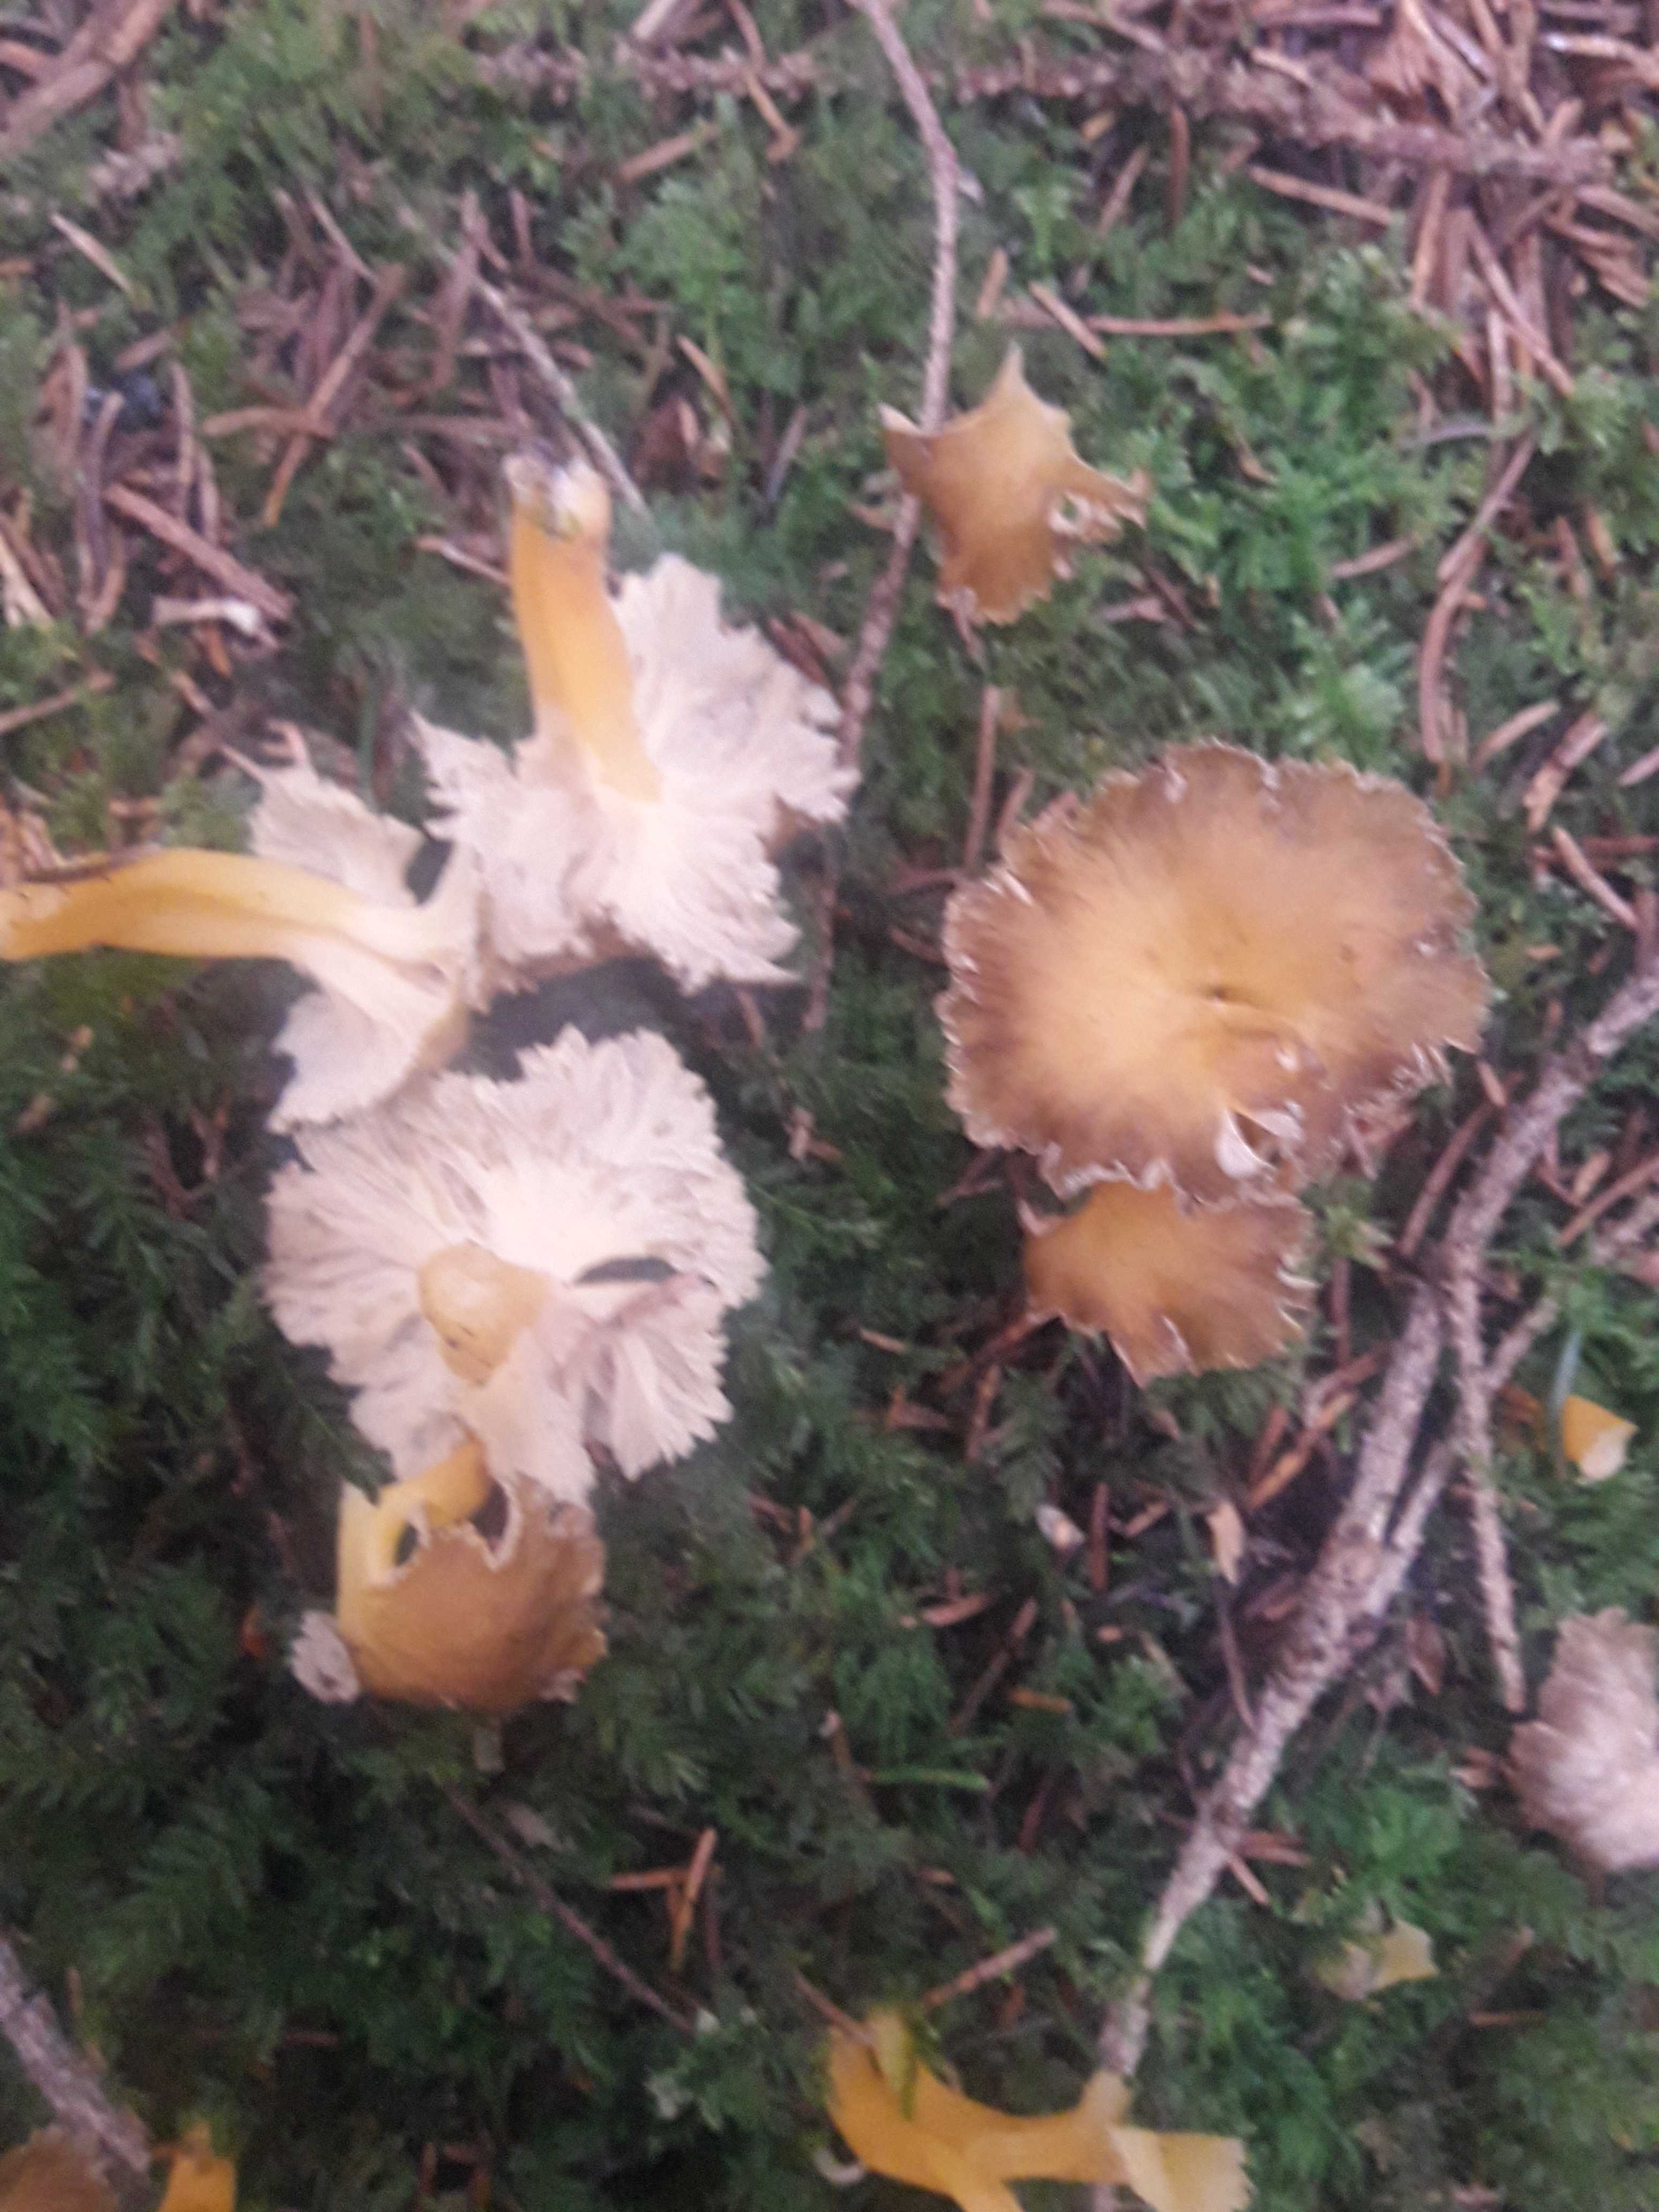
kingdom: Fungi
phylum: Basidiomycota
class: Agaricomycetes
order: Cantharellales
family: Hydnaceae
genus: Craterellus
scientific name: Craterellus lutescens
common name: gylden kantarel
